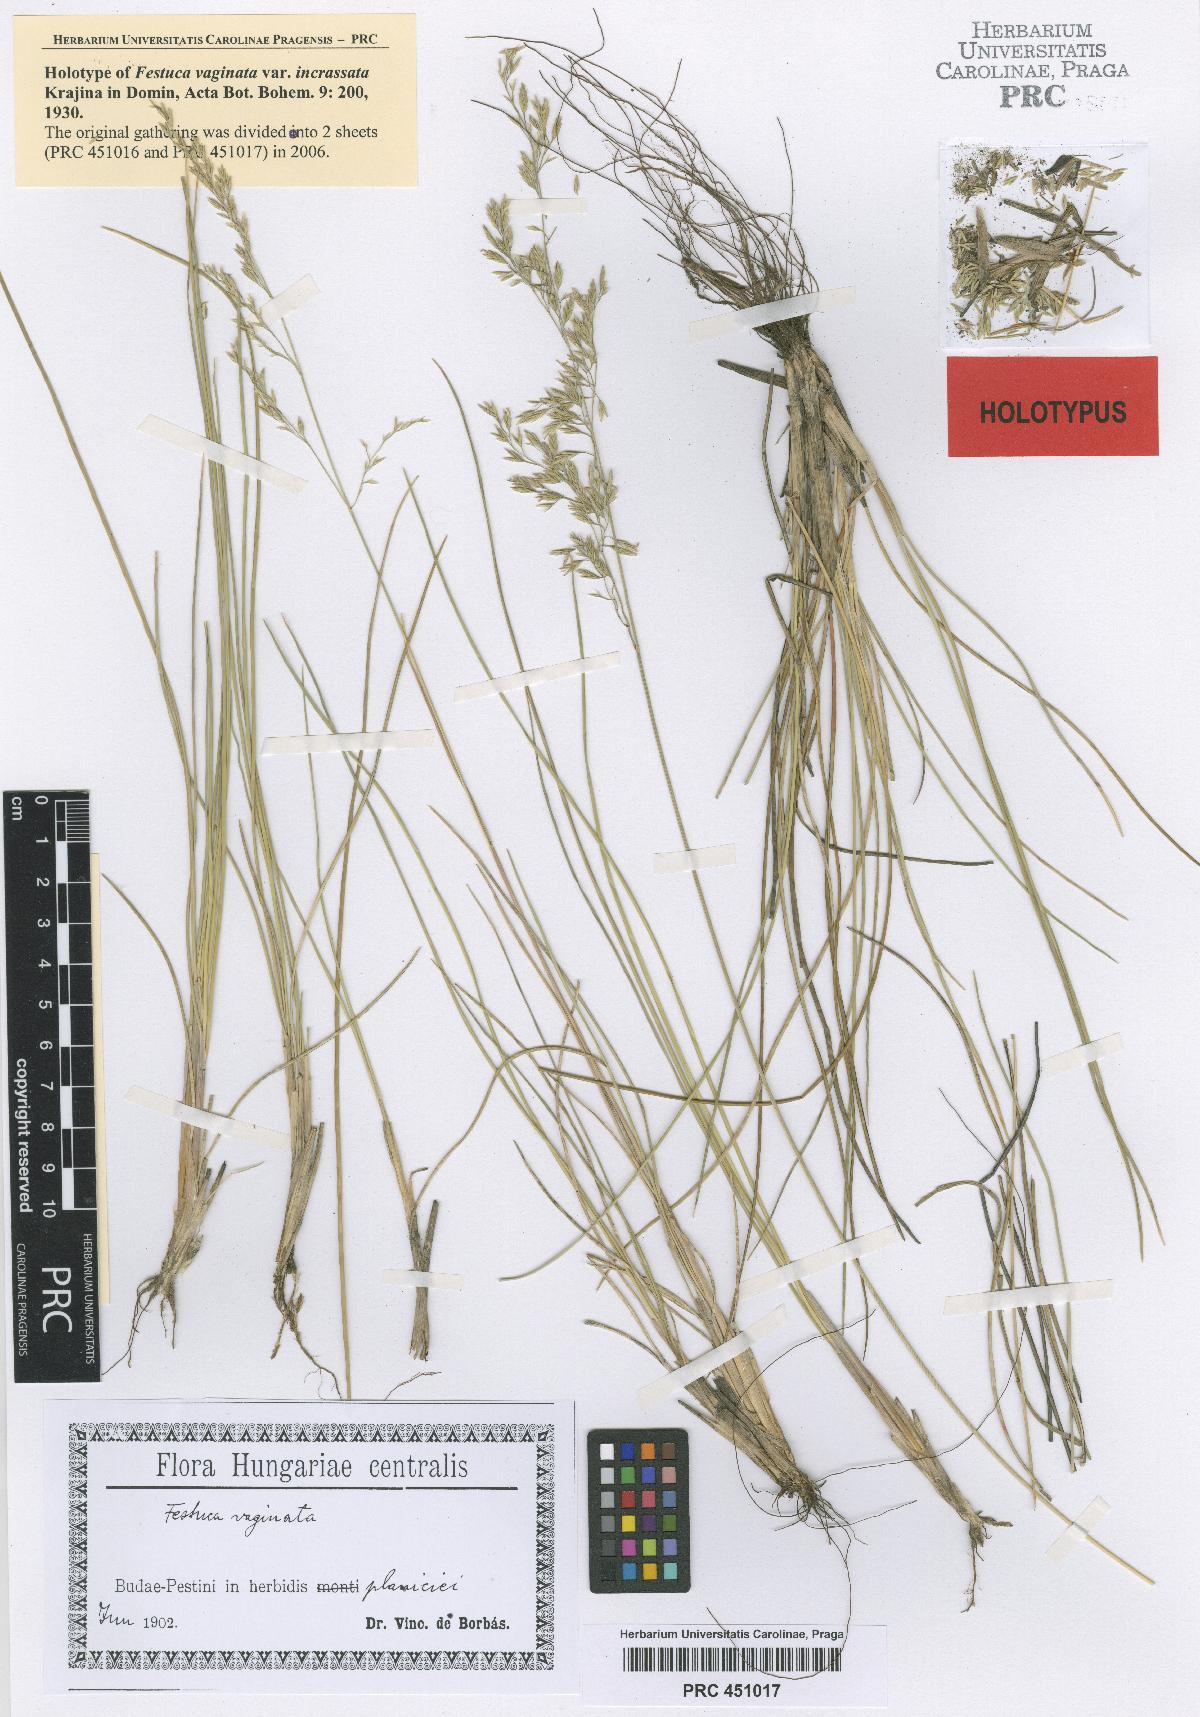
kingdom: Plantae
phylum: Tracheophyta
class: Liliopsida
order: Poales
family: Poaceae
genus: Festuca
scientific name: Festuca vaginata
